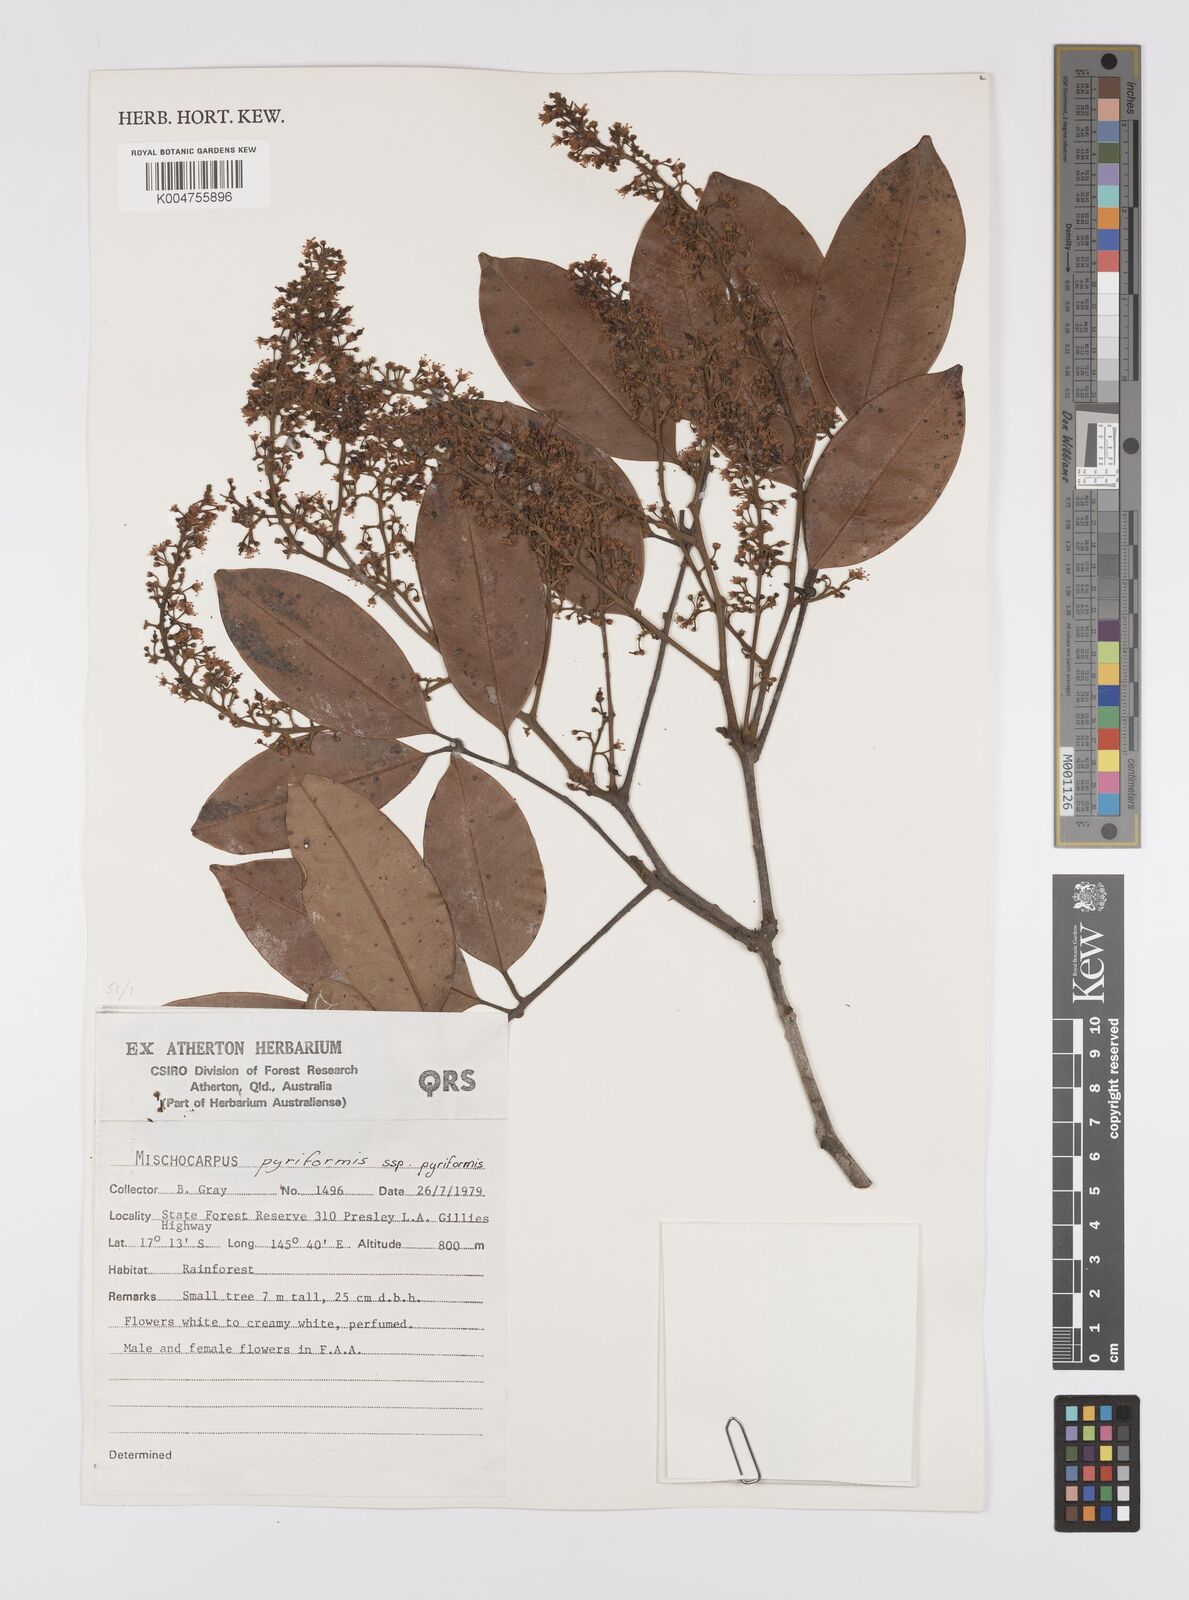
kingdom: Plantae
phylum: Tracheophyta
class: Magnoliopsida
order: Sapindales
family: Sapindaceae
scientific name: Sapindaceae
